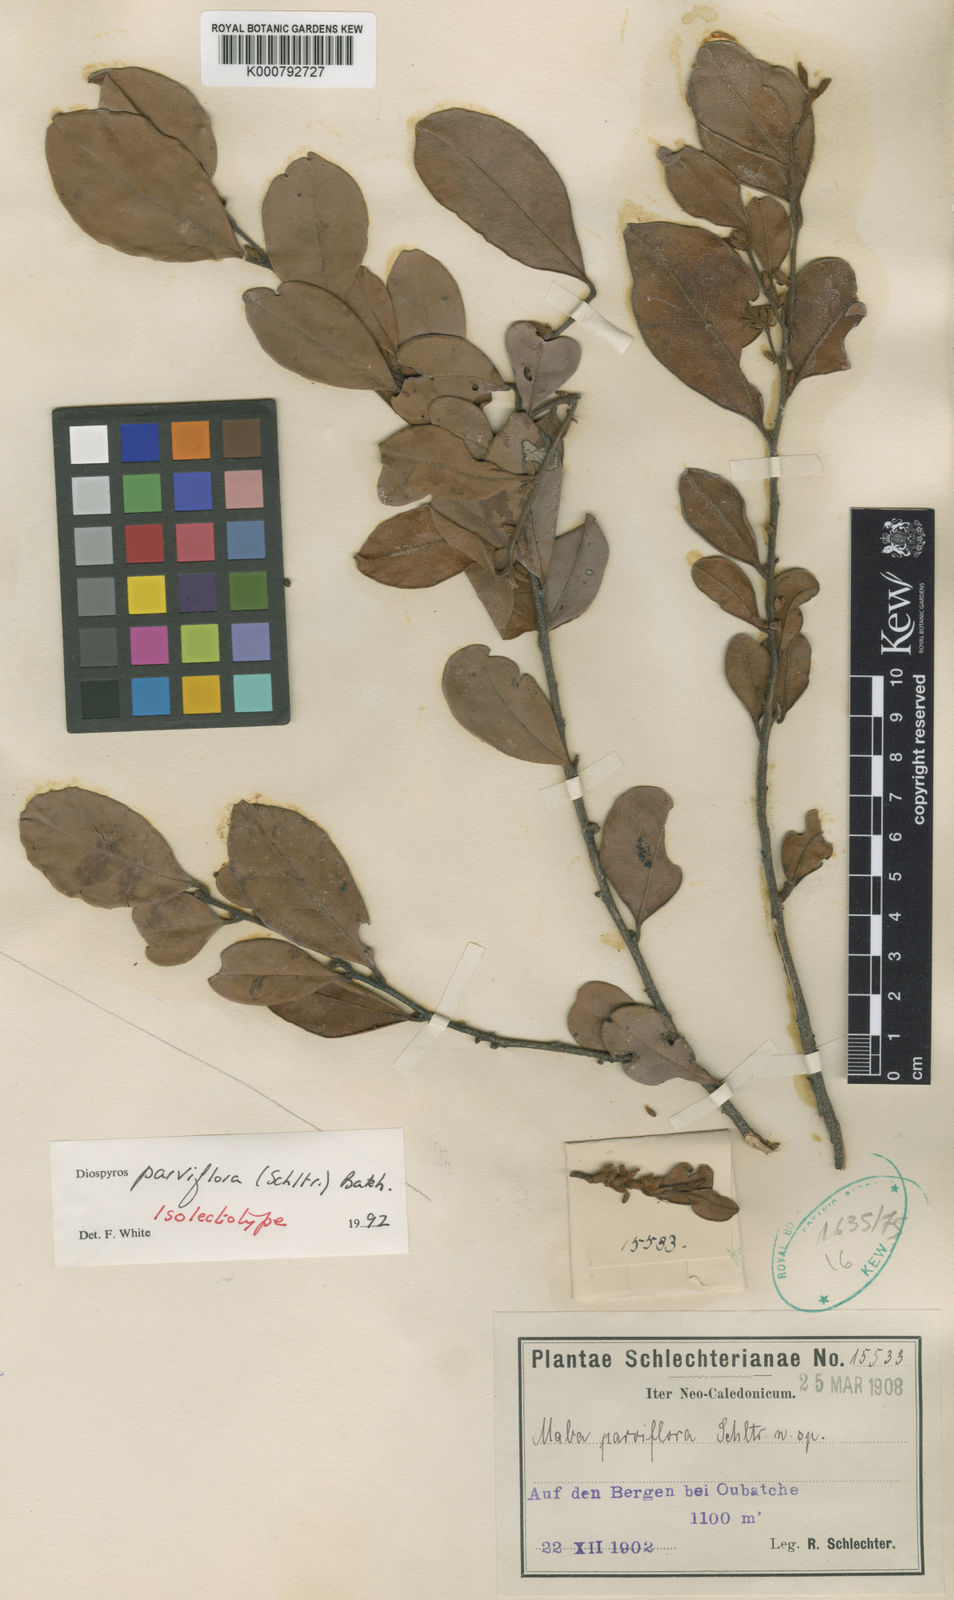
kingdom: Plantae
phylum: Tracheophyta
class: Magnoliopsida
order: Ericales
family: Ebenaceae
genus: Diospyros
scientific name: Diospyros parviflora
